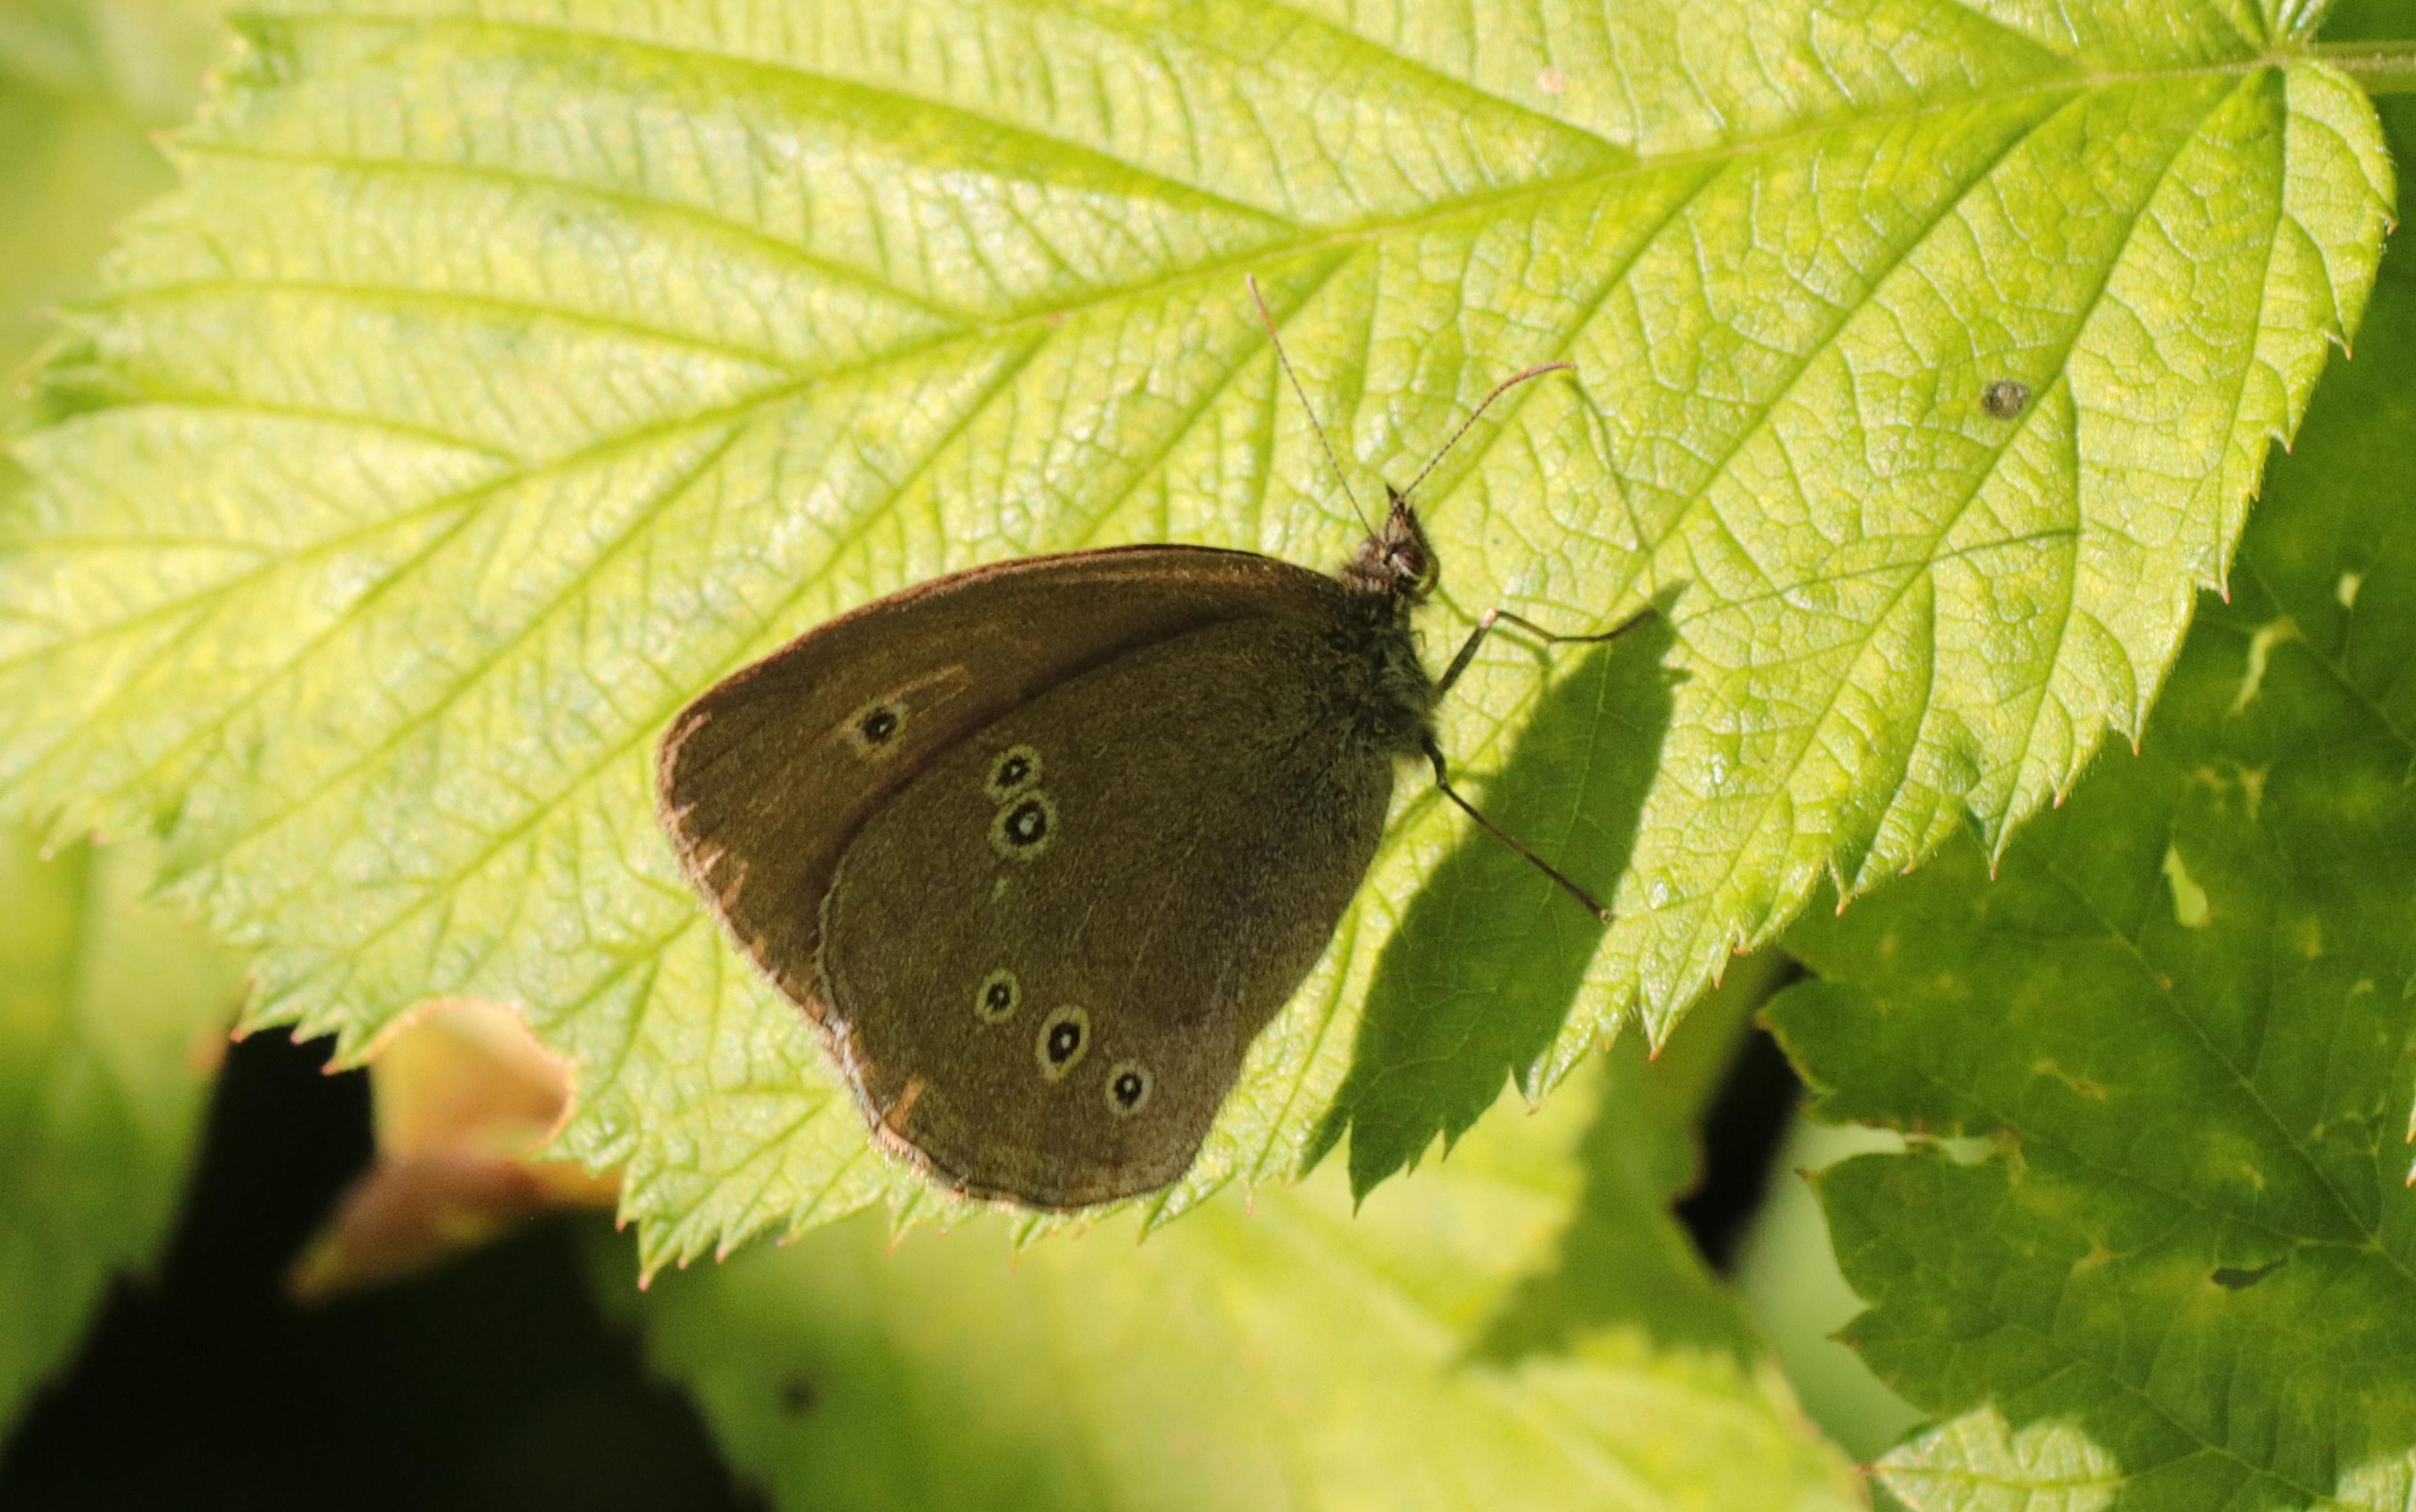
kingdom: Animalia
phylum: Arthropoda
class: Insecta
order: Lepidoptera
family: Nymphalidae
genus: Aphantopus
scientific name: Aphantopus hyperantus
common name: Engrandøje
